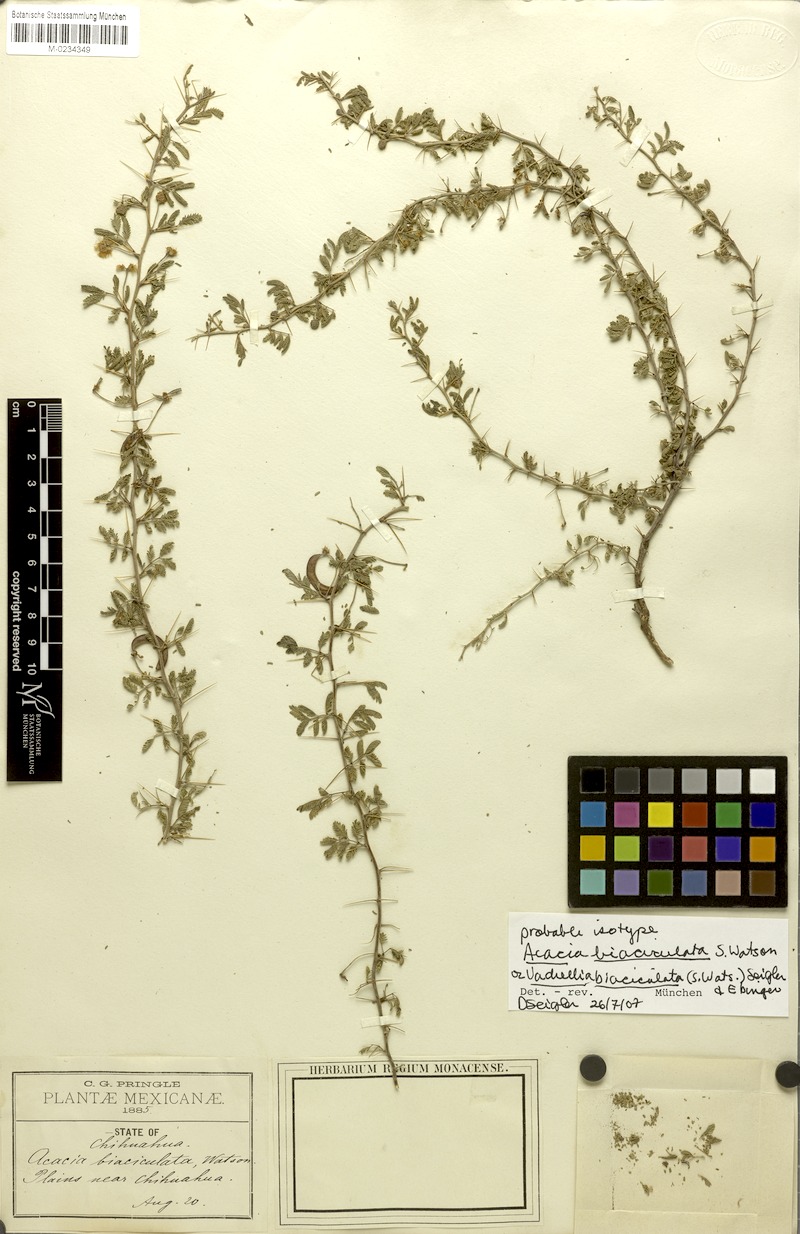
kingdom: Plantae
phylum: Tracheophyta
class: Magnoliopsida
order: Fabales
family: Fabaceae
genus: Vachellia
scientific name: Vachellia biaciculata
